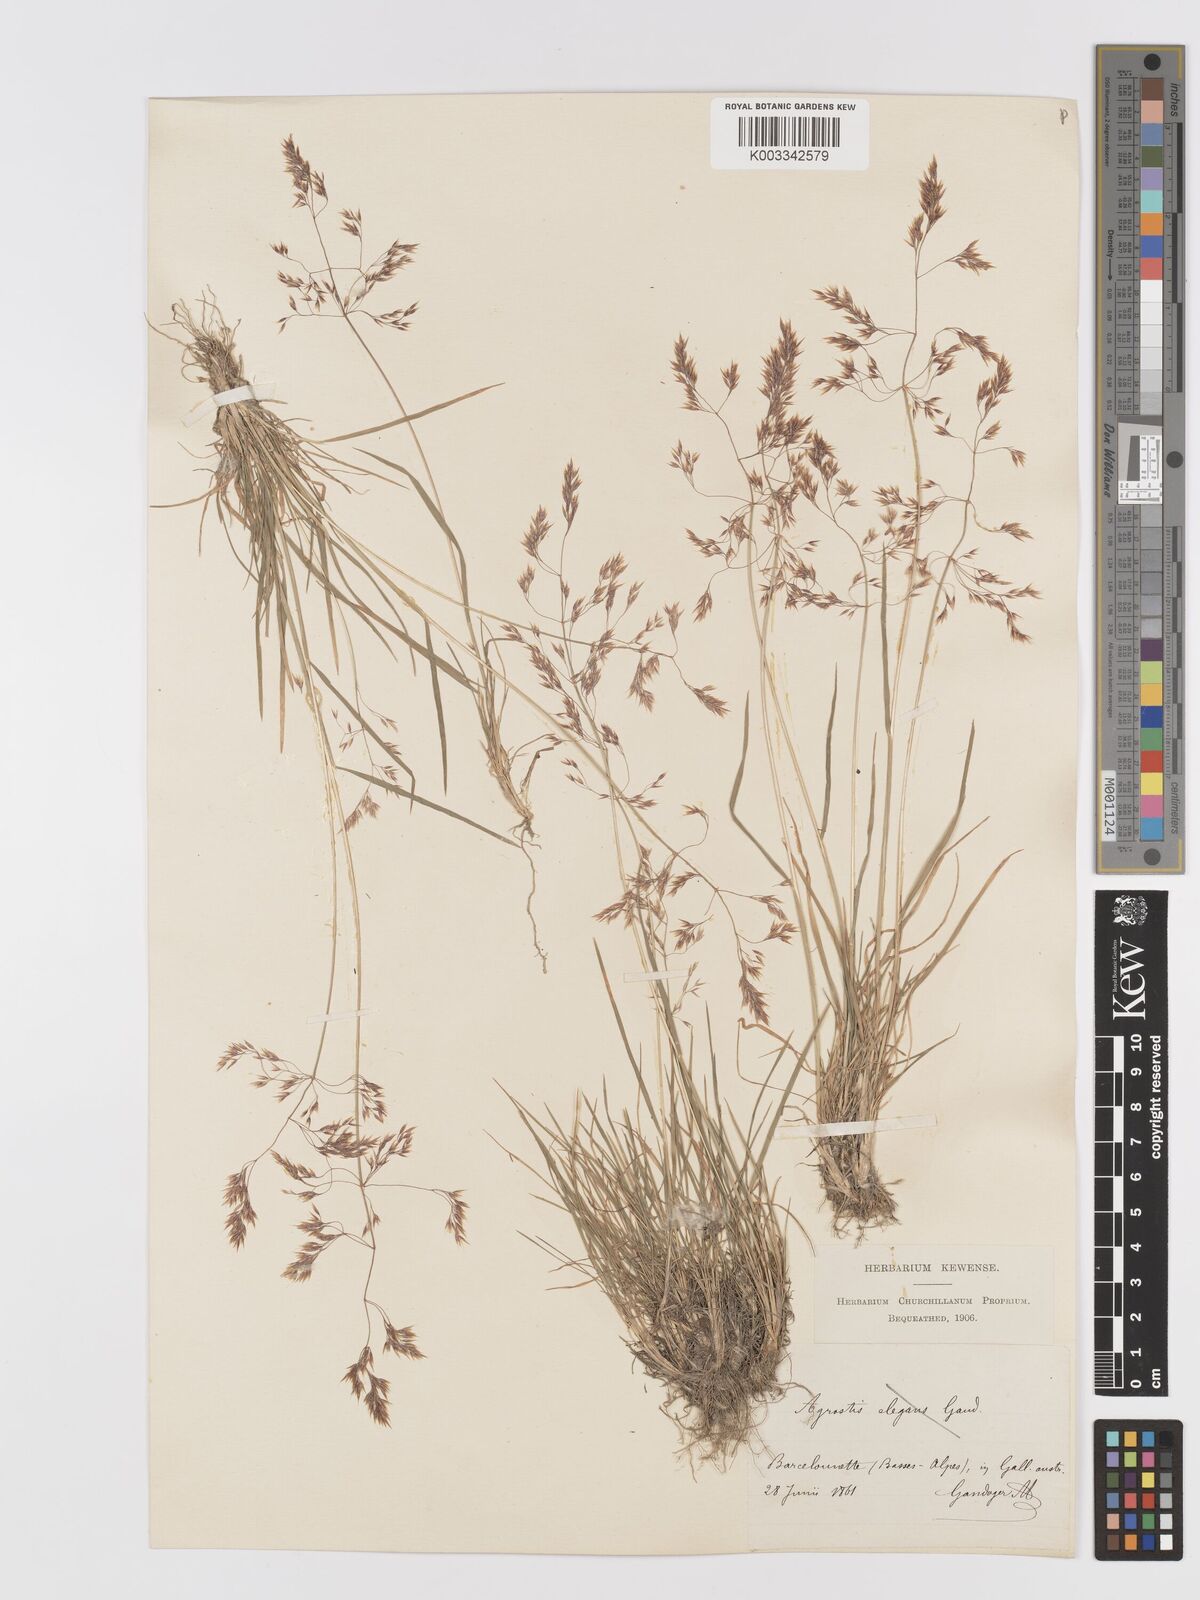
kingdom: Plantae
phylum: Tracheophyta
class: Liliopsida
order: Poales
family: Poaceae
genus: Agrostis
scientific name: Agrostis
